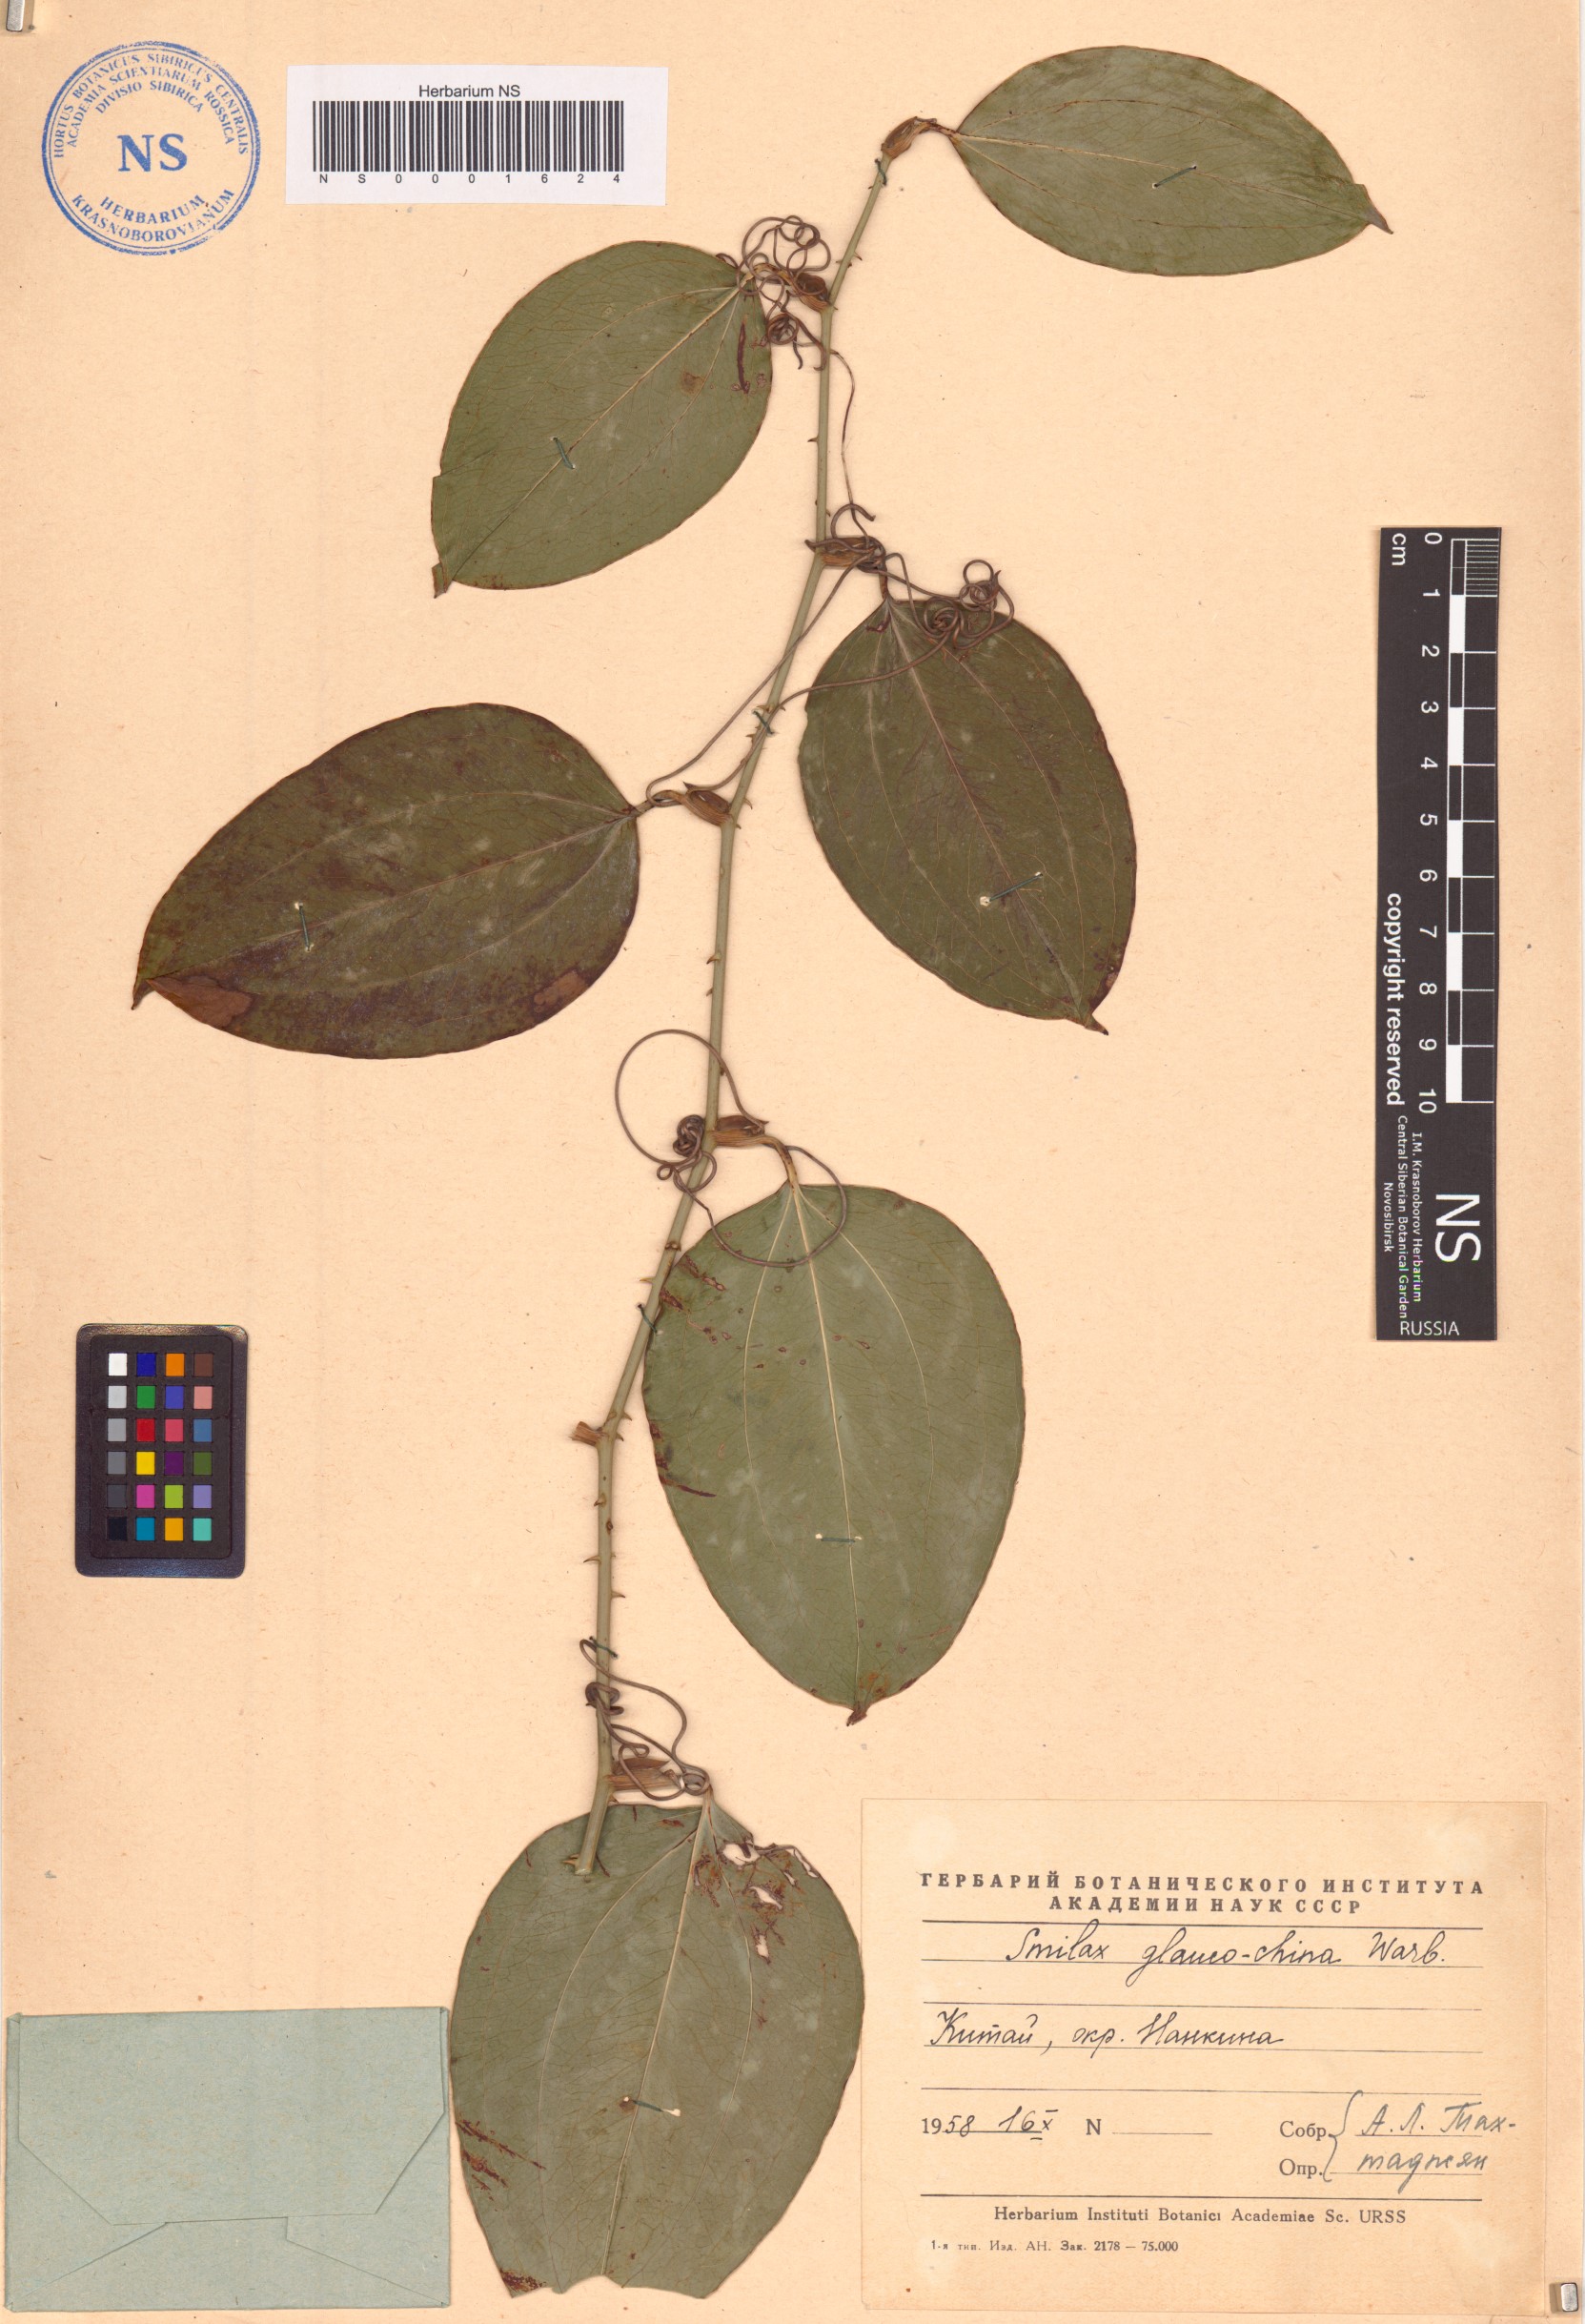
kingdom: Plantae
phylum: Tracheophyta
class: Liliopsida
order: Liliales
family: Smilacaceae
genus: Smilax
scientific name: Smilax glaucochina
